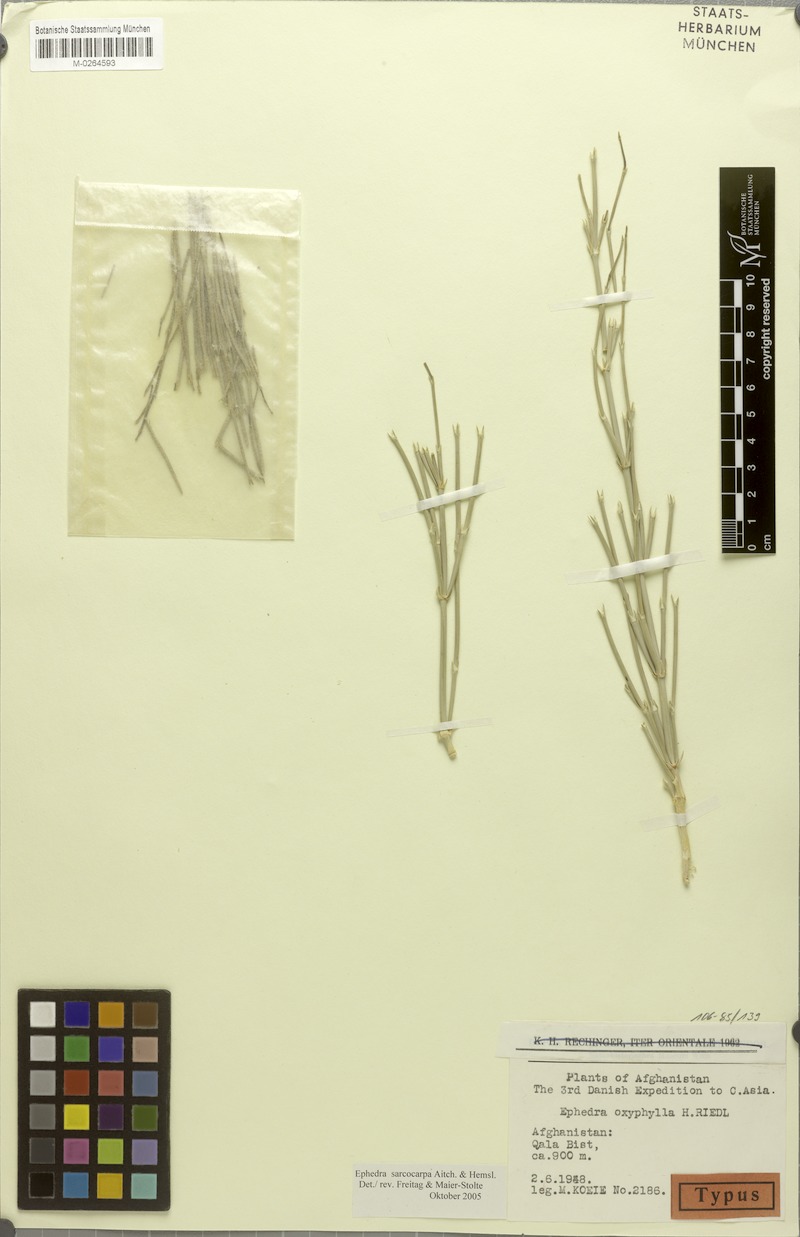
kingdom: Plantae
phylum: Tracheophyta
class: Gnetopsida
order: Ephedrales
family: Ephedraceae
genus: Ephedra
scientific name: Ephedra sarcocarpa
